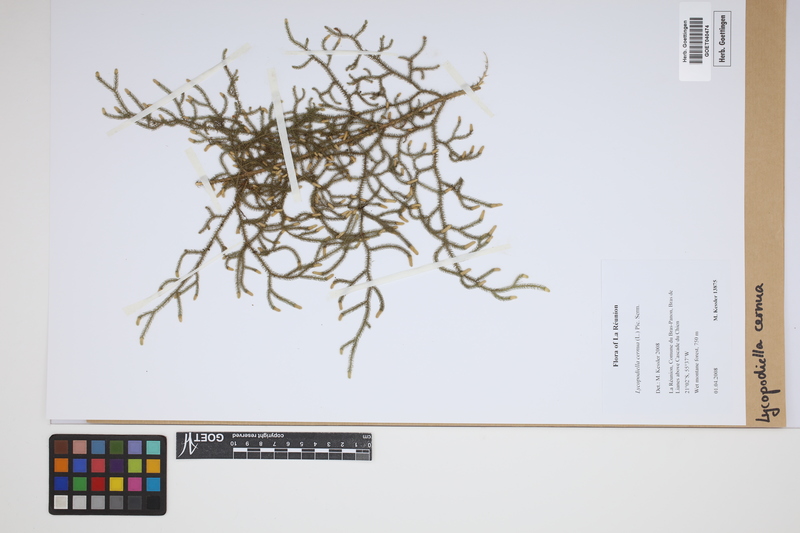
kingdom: Plantae
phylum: Tracheophyta
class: Lycopodiopsida
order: Lycopodiales
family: Lycopodiaceae
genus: Palhinhaea
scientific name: Palhinhaea cernua
